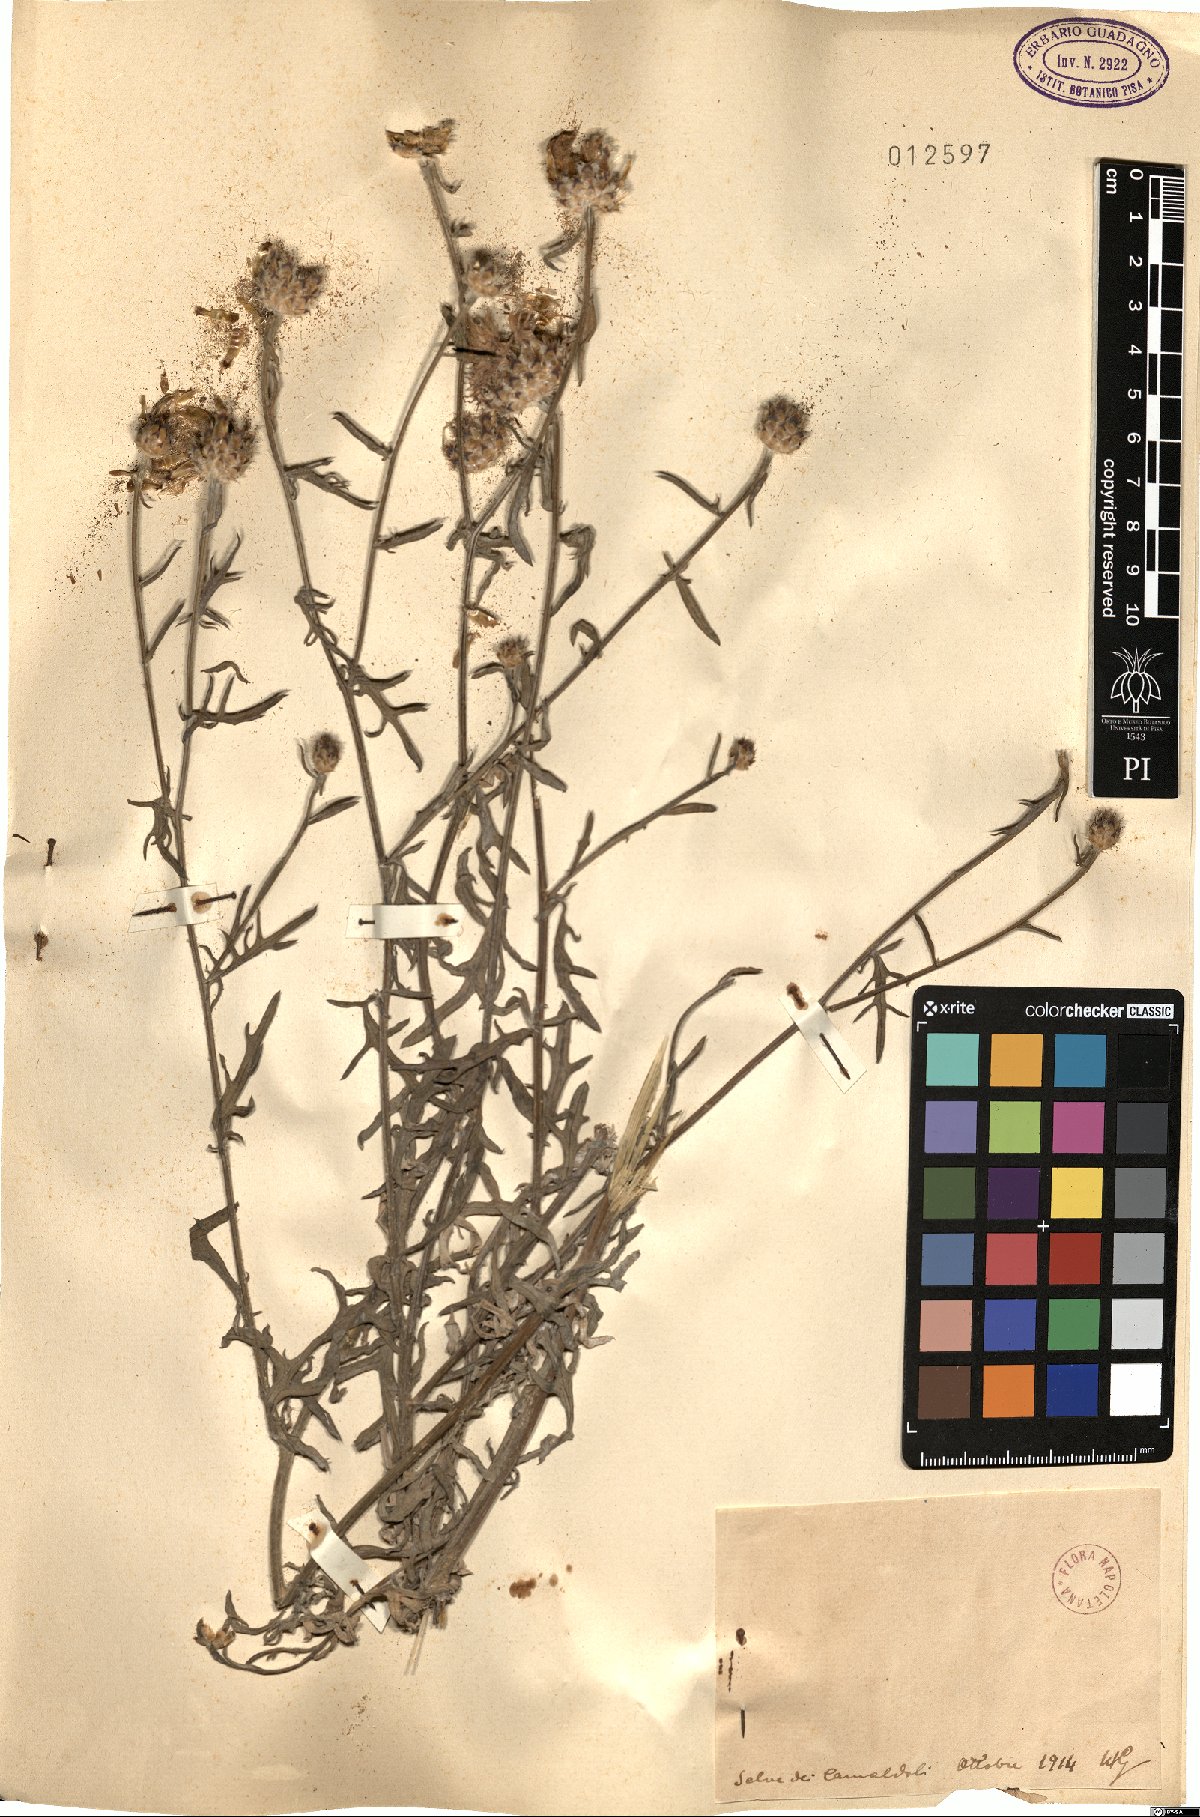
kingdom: Plantae
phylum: Tracheophyta
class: Magnoliopsida
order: Asterales
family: Asteraceae
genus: Centaurea
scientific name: Centaurea
